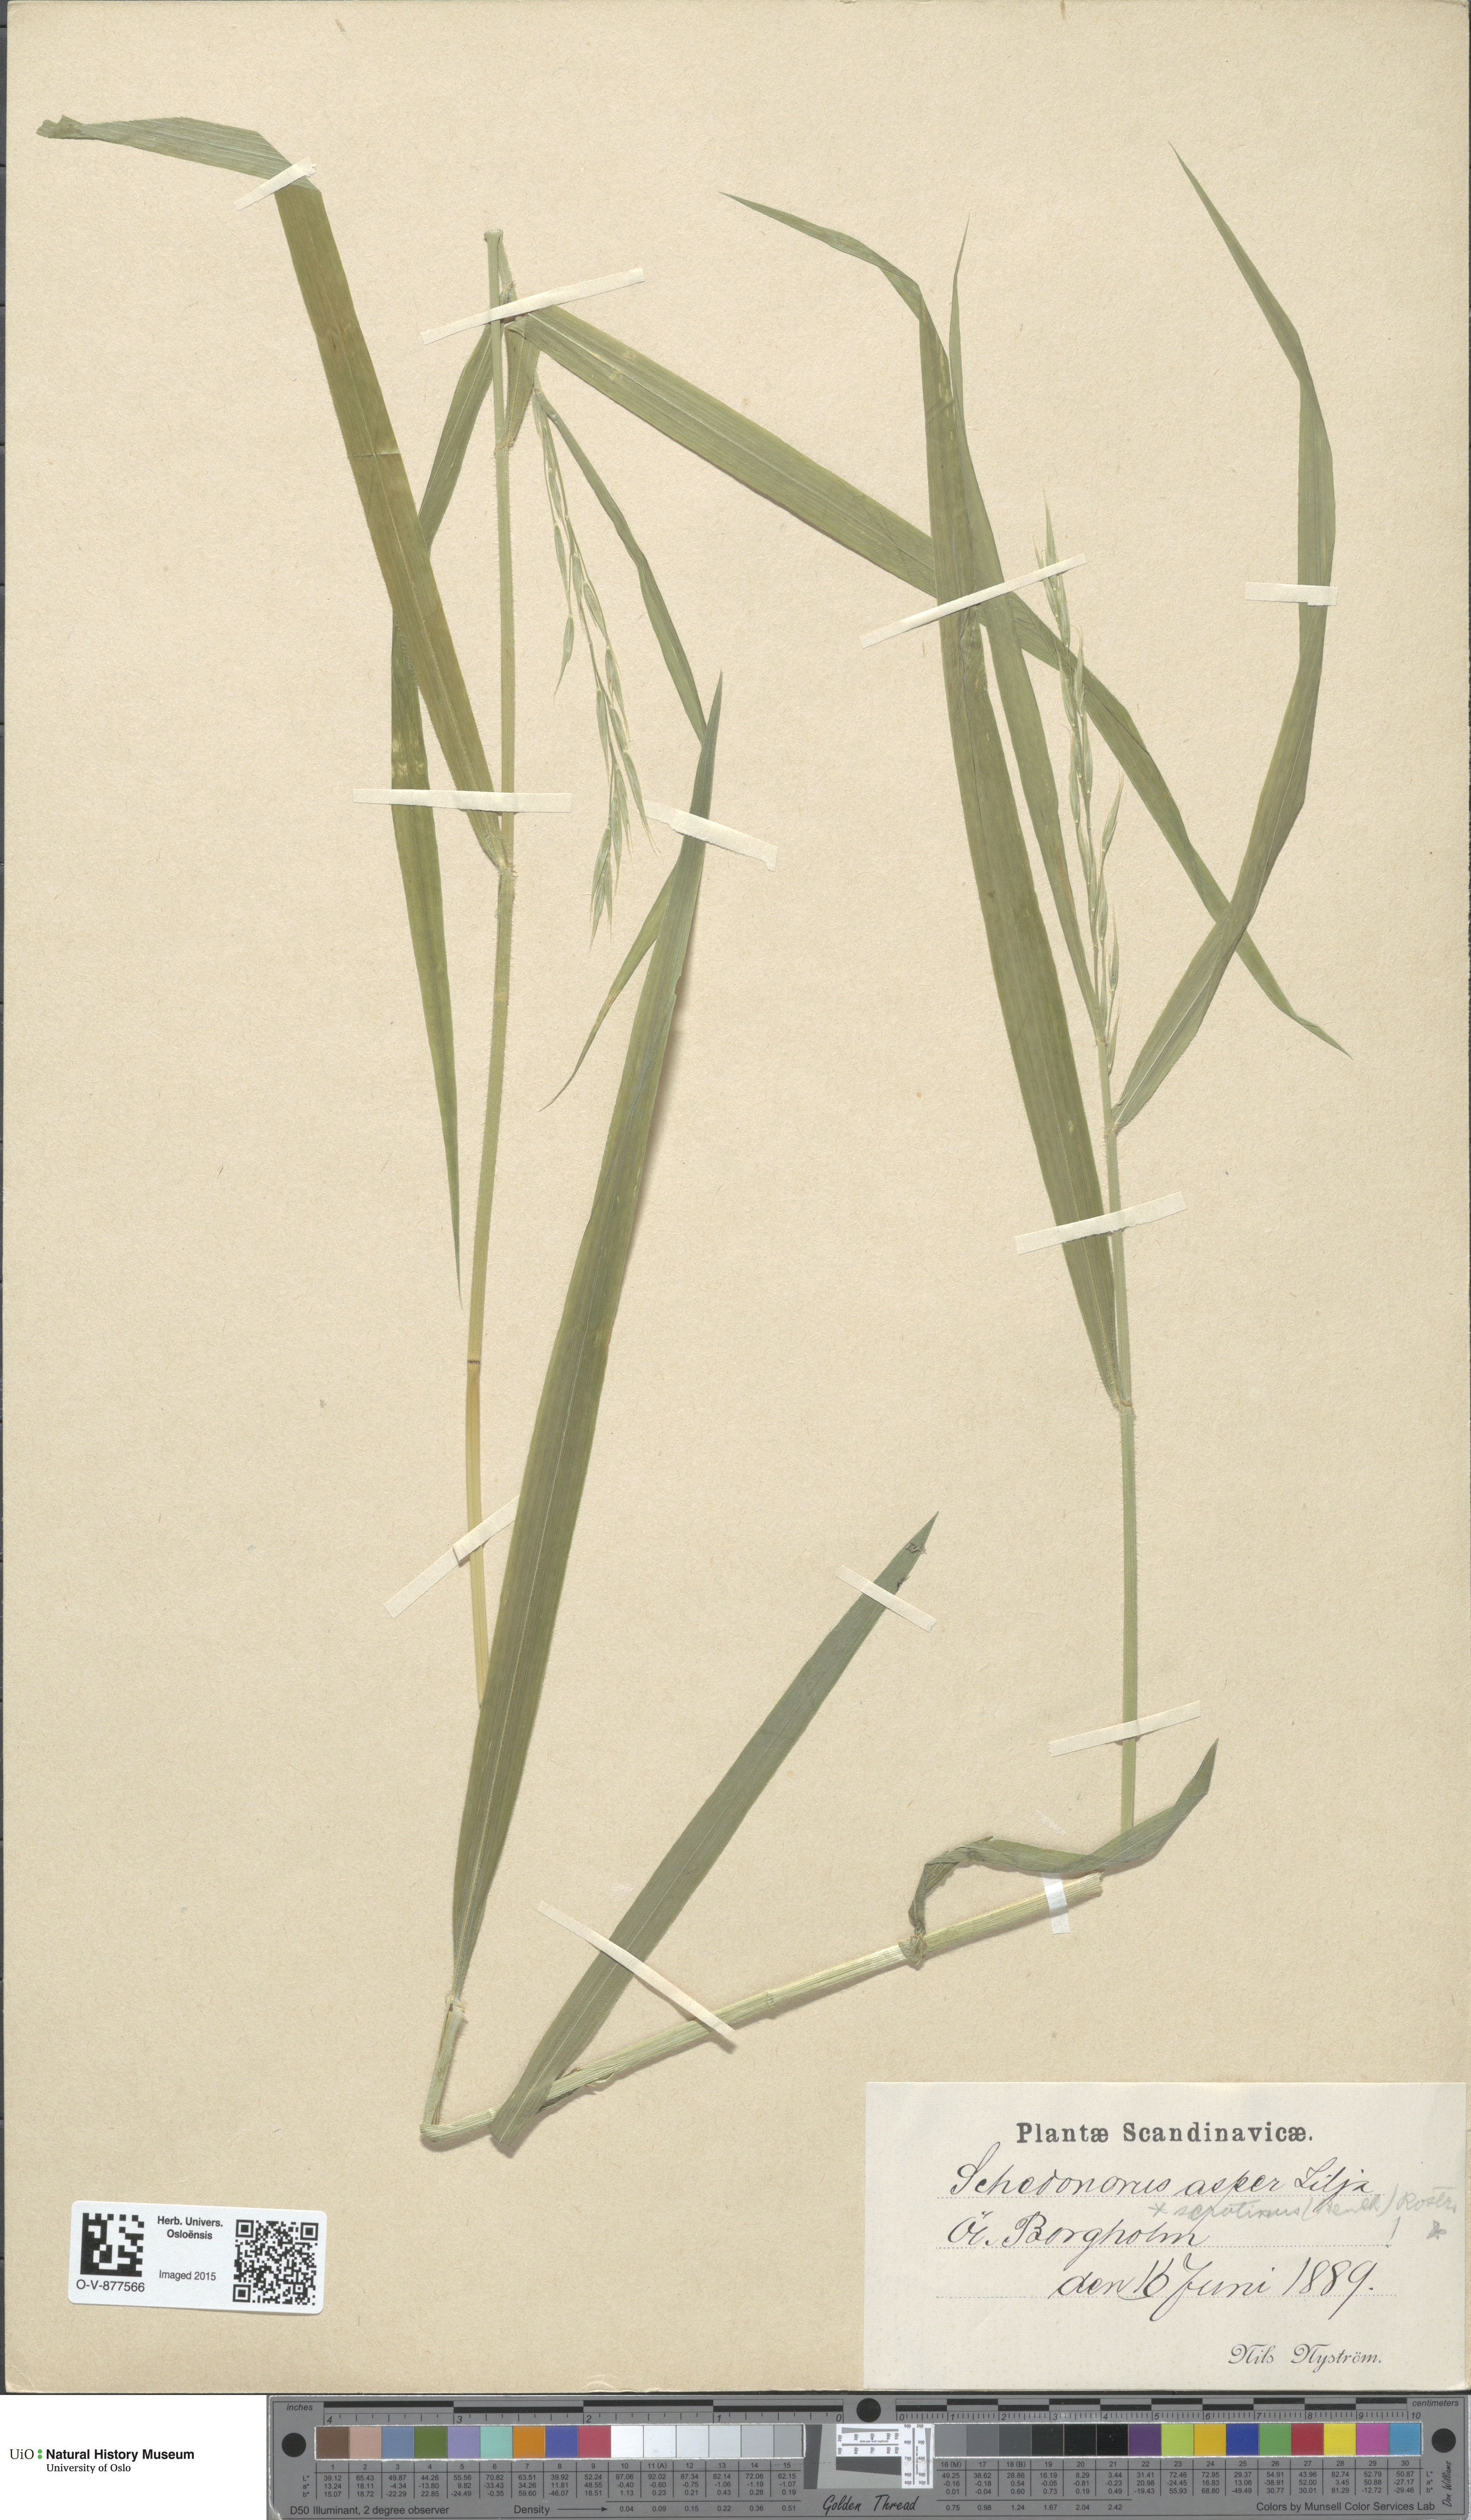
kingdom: Plantae
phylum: Tracheophyta
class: Liliopsida
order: Poales
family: Poaceae
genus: Bromus
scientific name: Bromus ramosus
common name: Hairy brome
